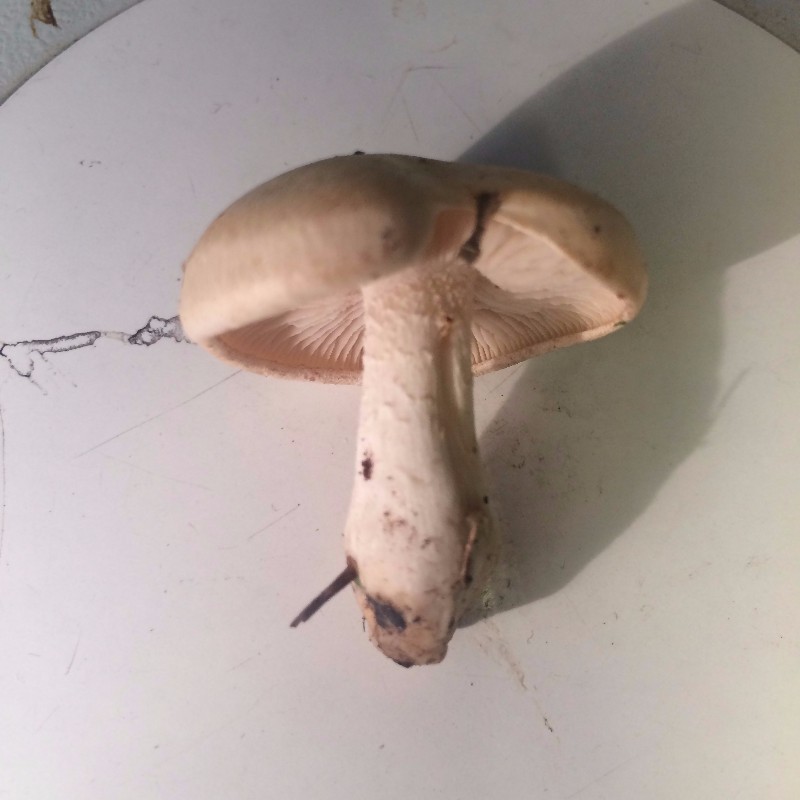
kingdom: Fungi
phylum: Basidiomycota
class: Agaricomycetes
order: Agaricales
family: Hymenogastraceae
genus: Hebeloma
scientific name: Hebeloma crustuliniforme
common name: almindelig tåreblad
